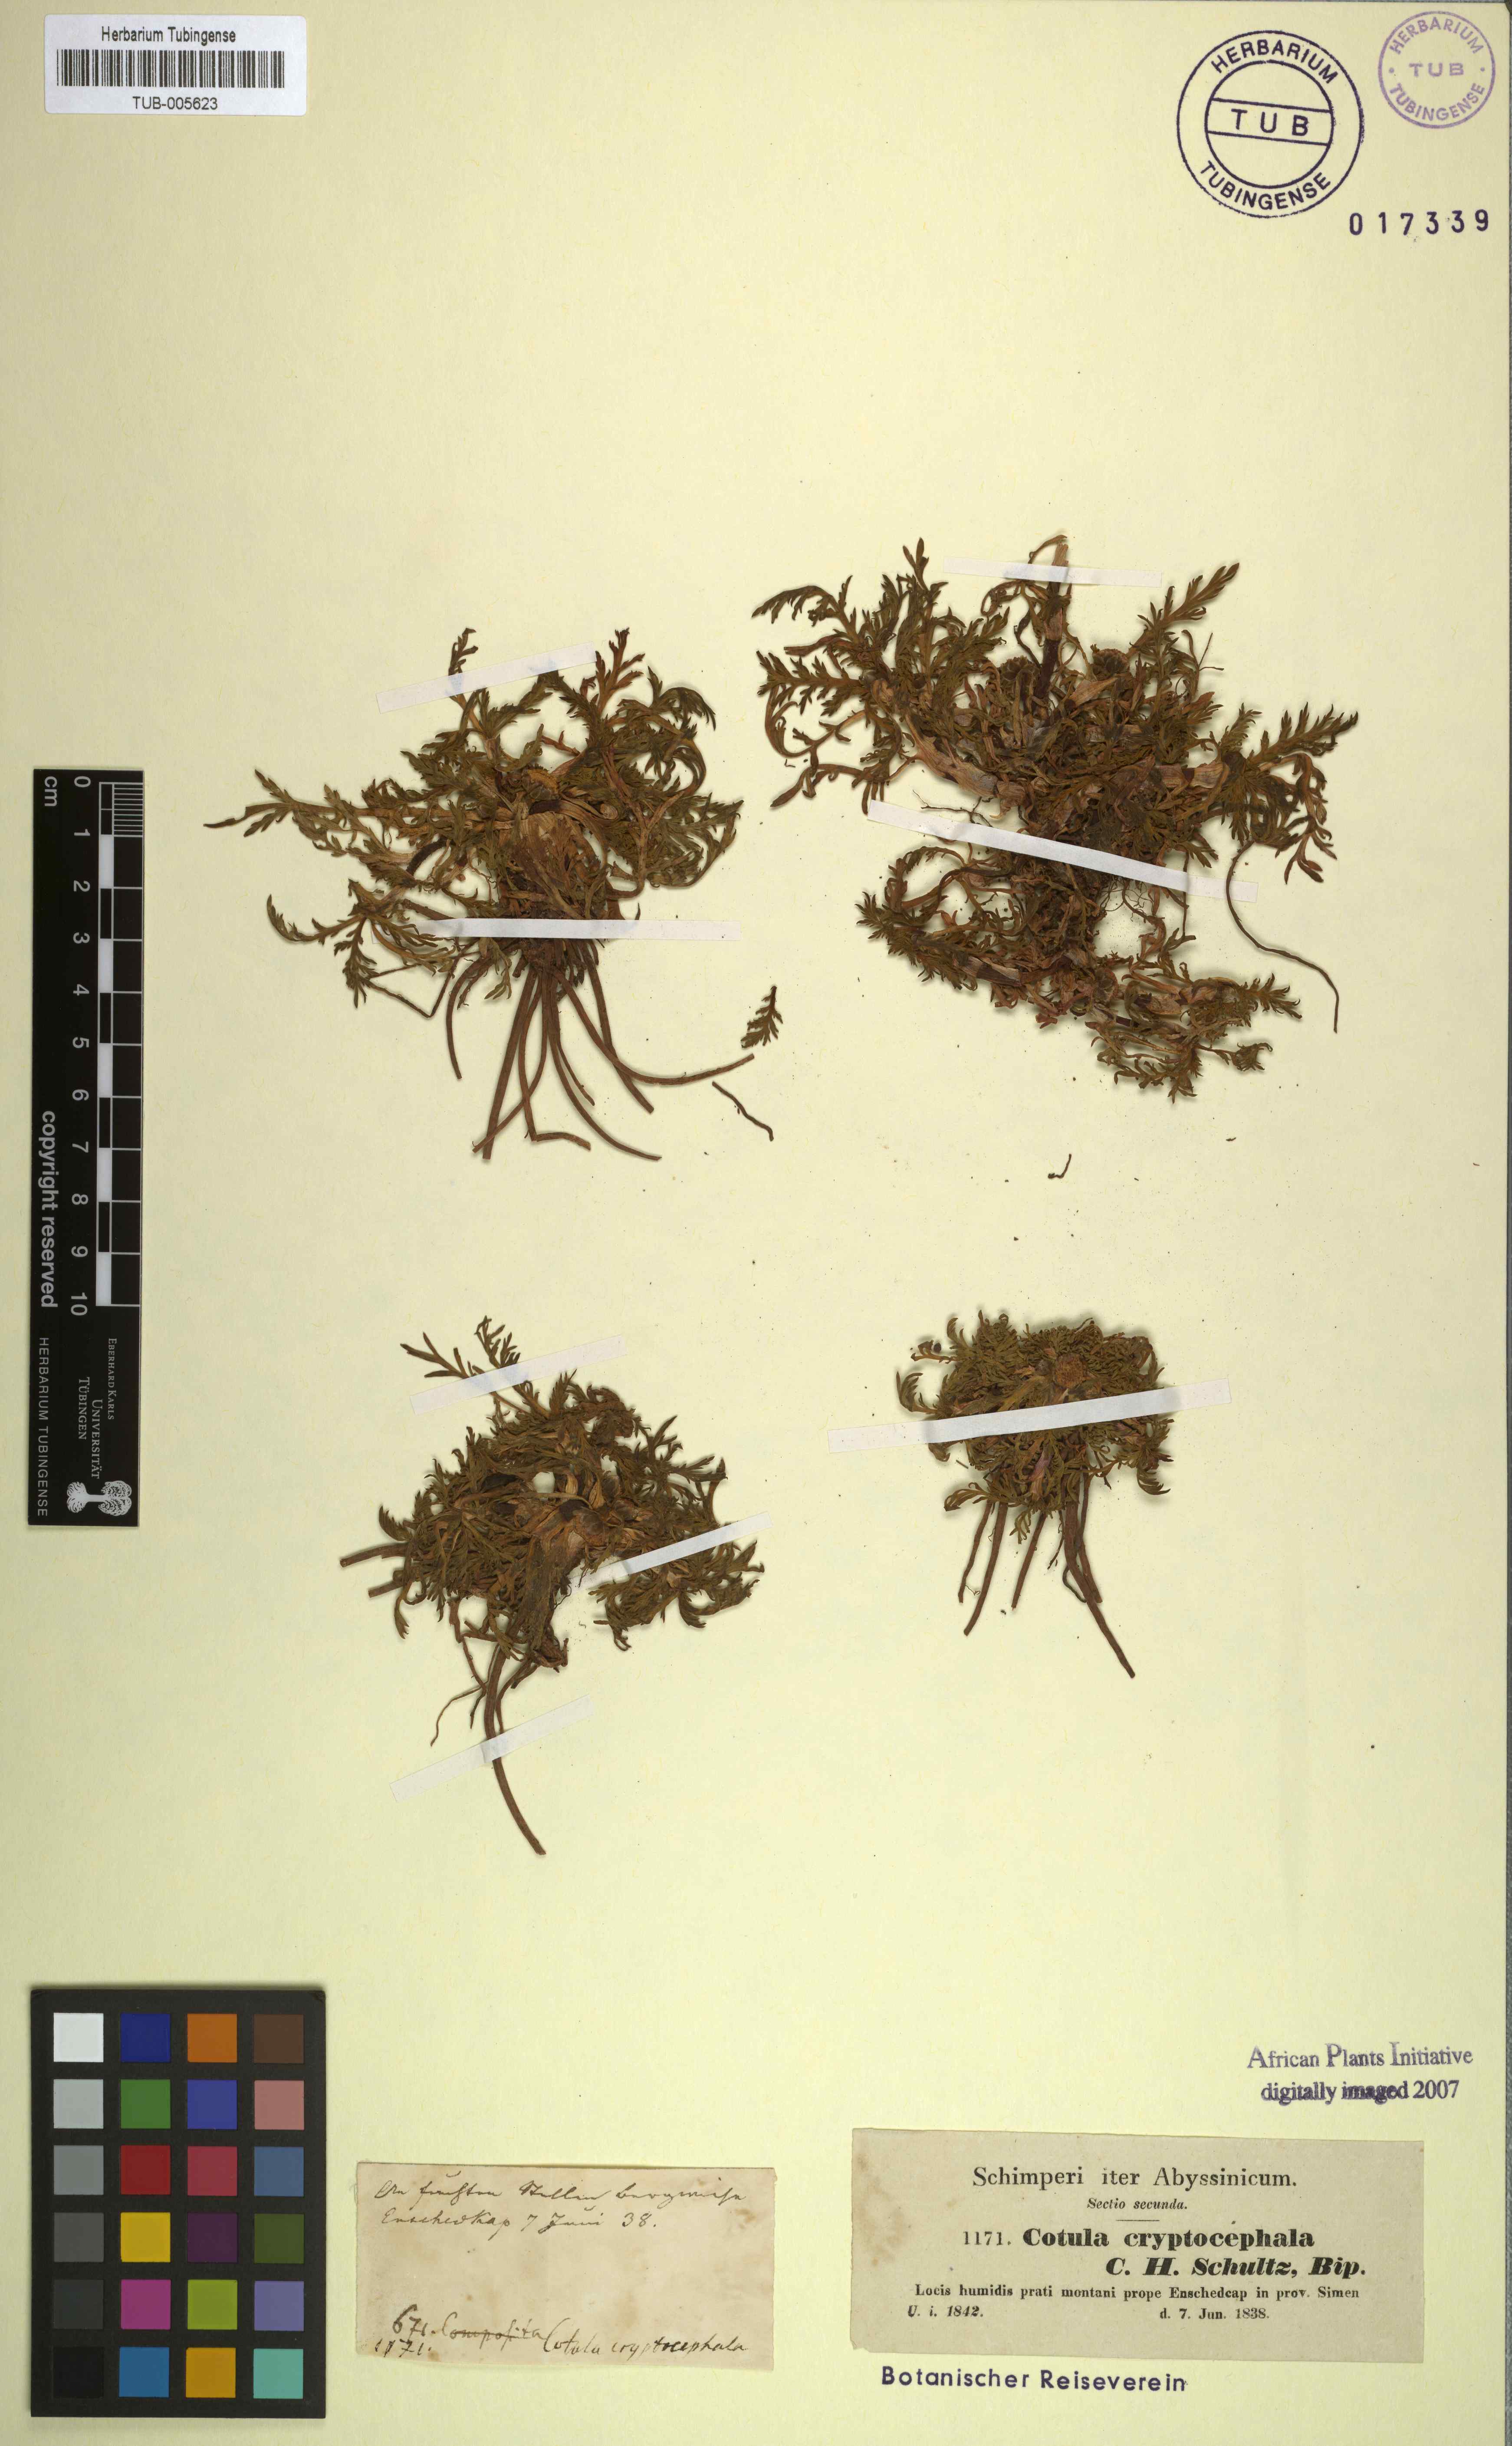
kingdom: Plantae
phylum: Tracheophyta
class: Magnoliopsida
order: Asterales
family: Asteraceae
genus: Cotula
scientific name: Cotula cryptocephala
